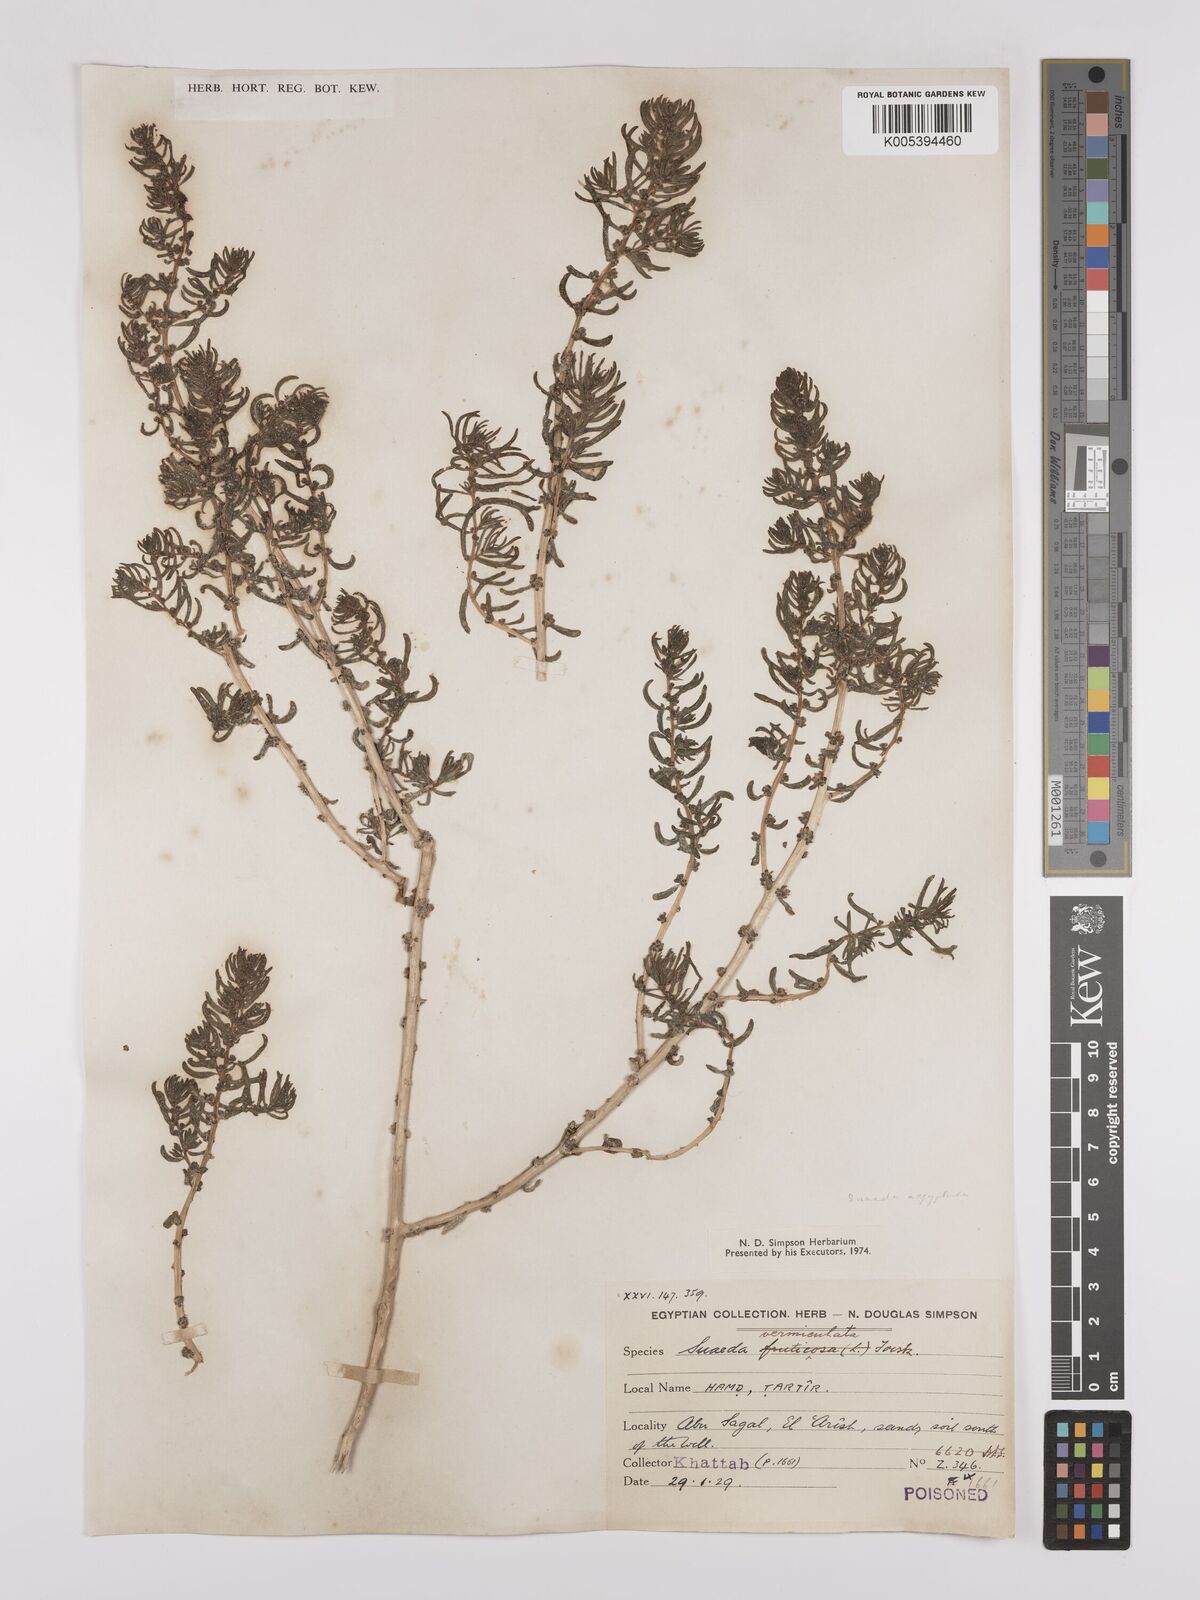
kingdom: Plantae
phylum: Tracheophyta
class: Magnoliopsida
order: Caryophyllales
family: Amaranthaceae
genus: Suaeda
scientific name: Suaeda aegyptiaca
